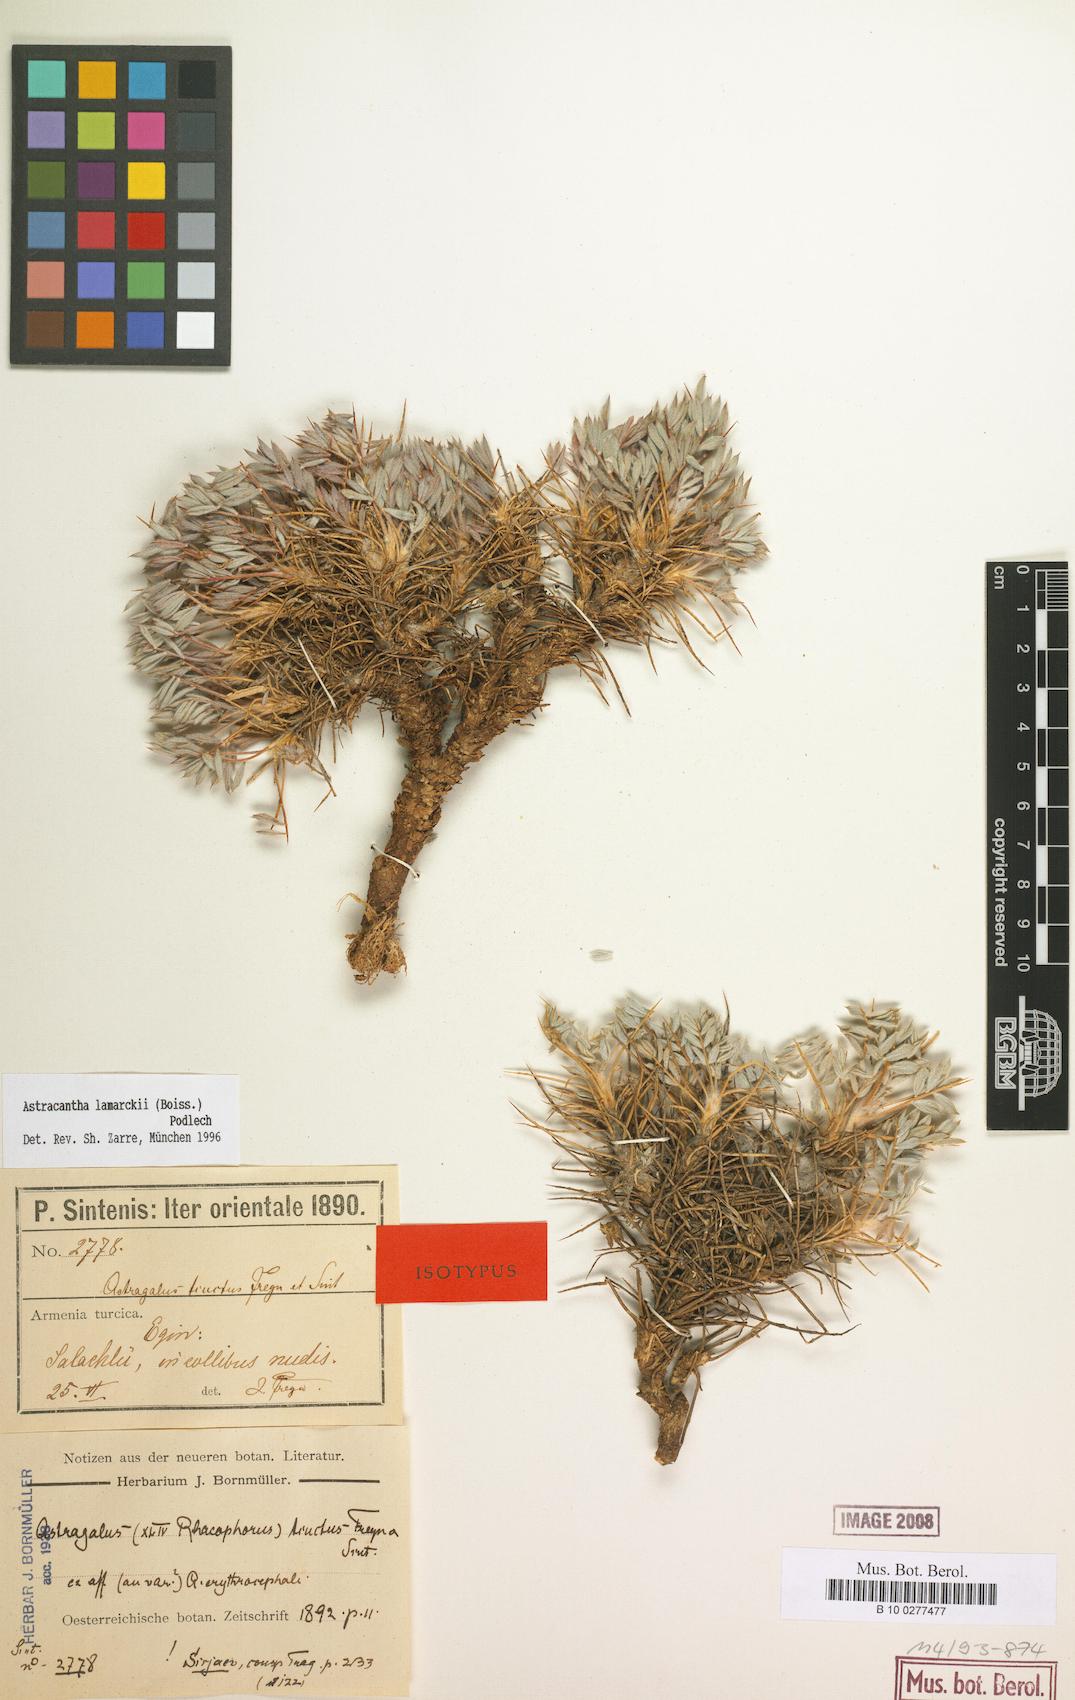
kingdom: Plantae
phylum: Tracheophyta
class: Magnoliopsida
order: Fabales
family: Fabaceae
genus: Astragalus
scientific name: Astragalus lamarckii
